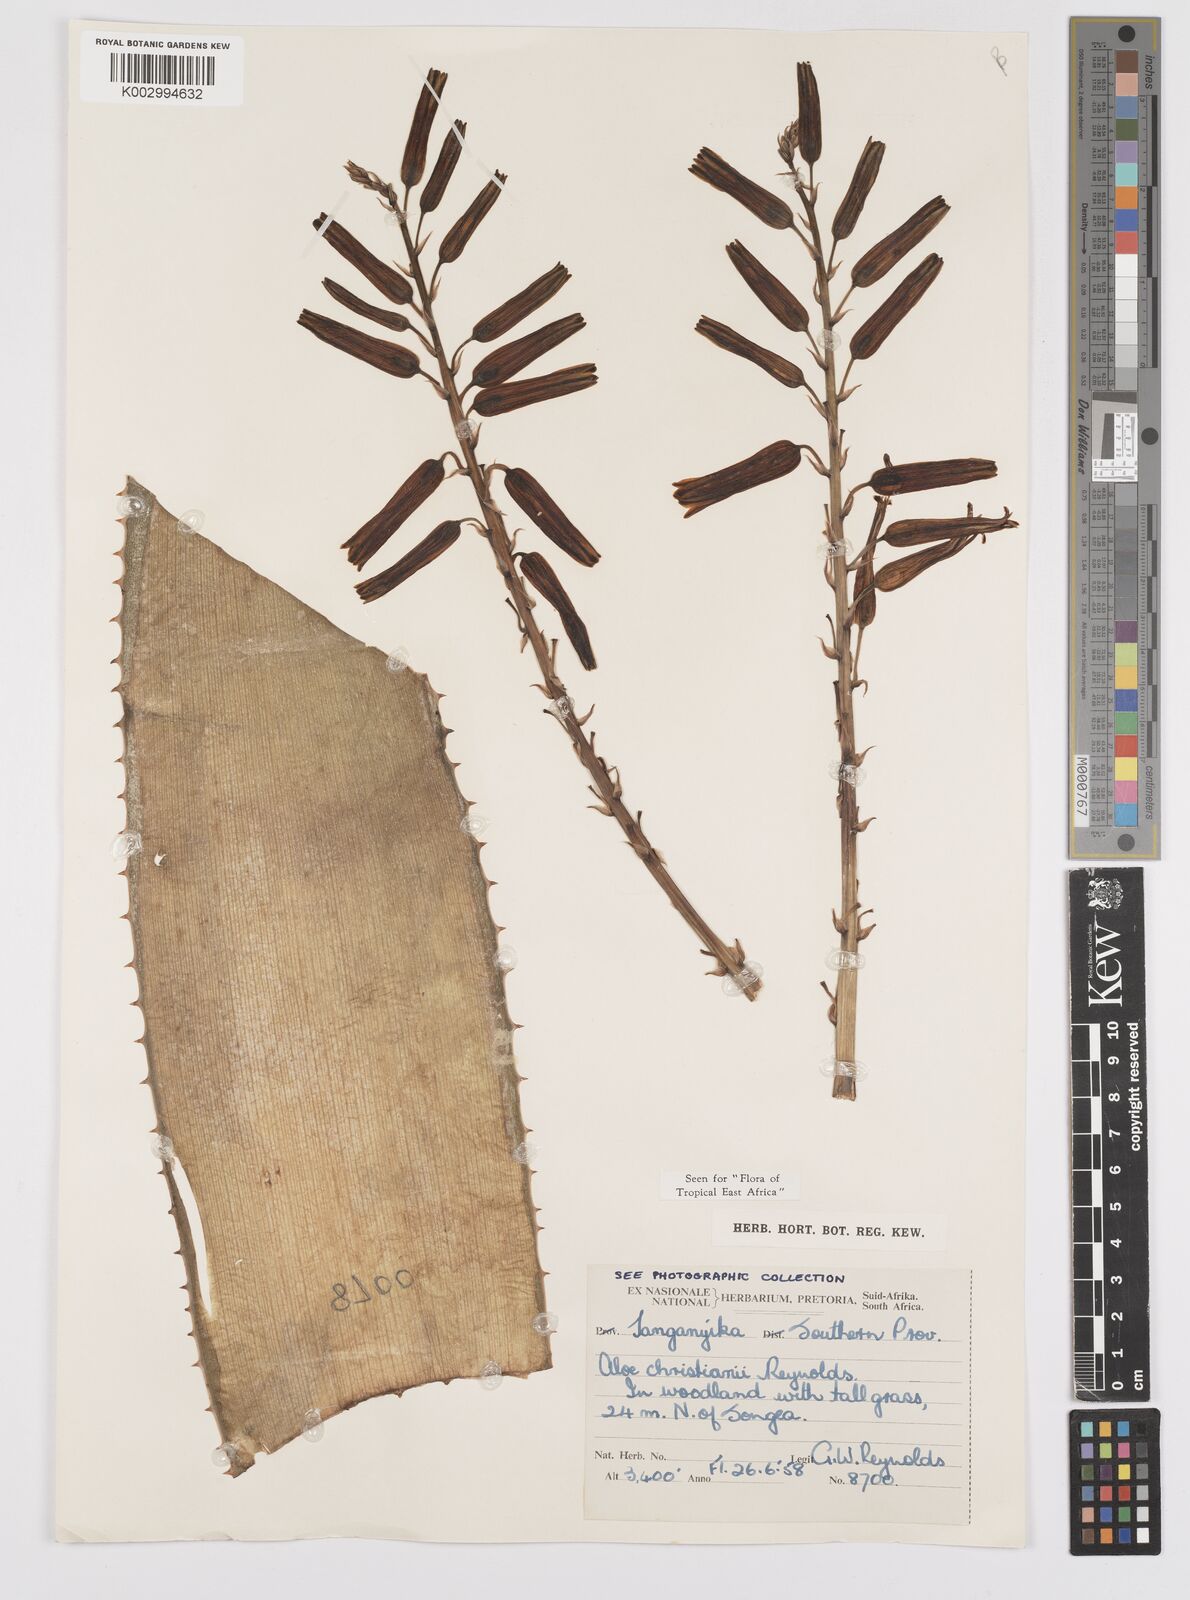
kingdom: Plantae
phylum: Tracheophyta
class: Liliopsida
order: Asparagales
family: Asphodelaceae
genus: Aloe
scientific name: Aloe christianii
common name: Basil christian's aloe
